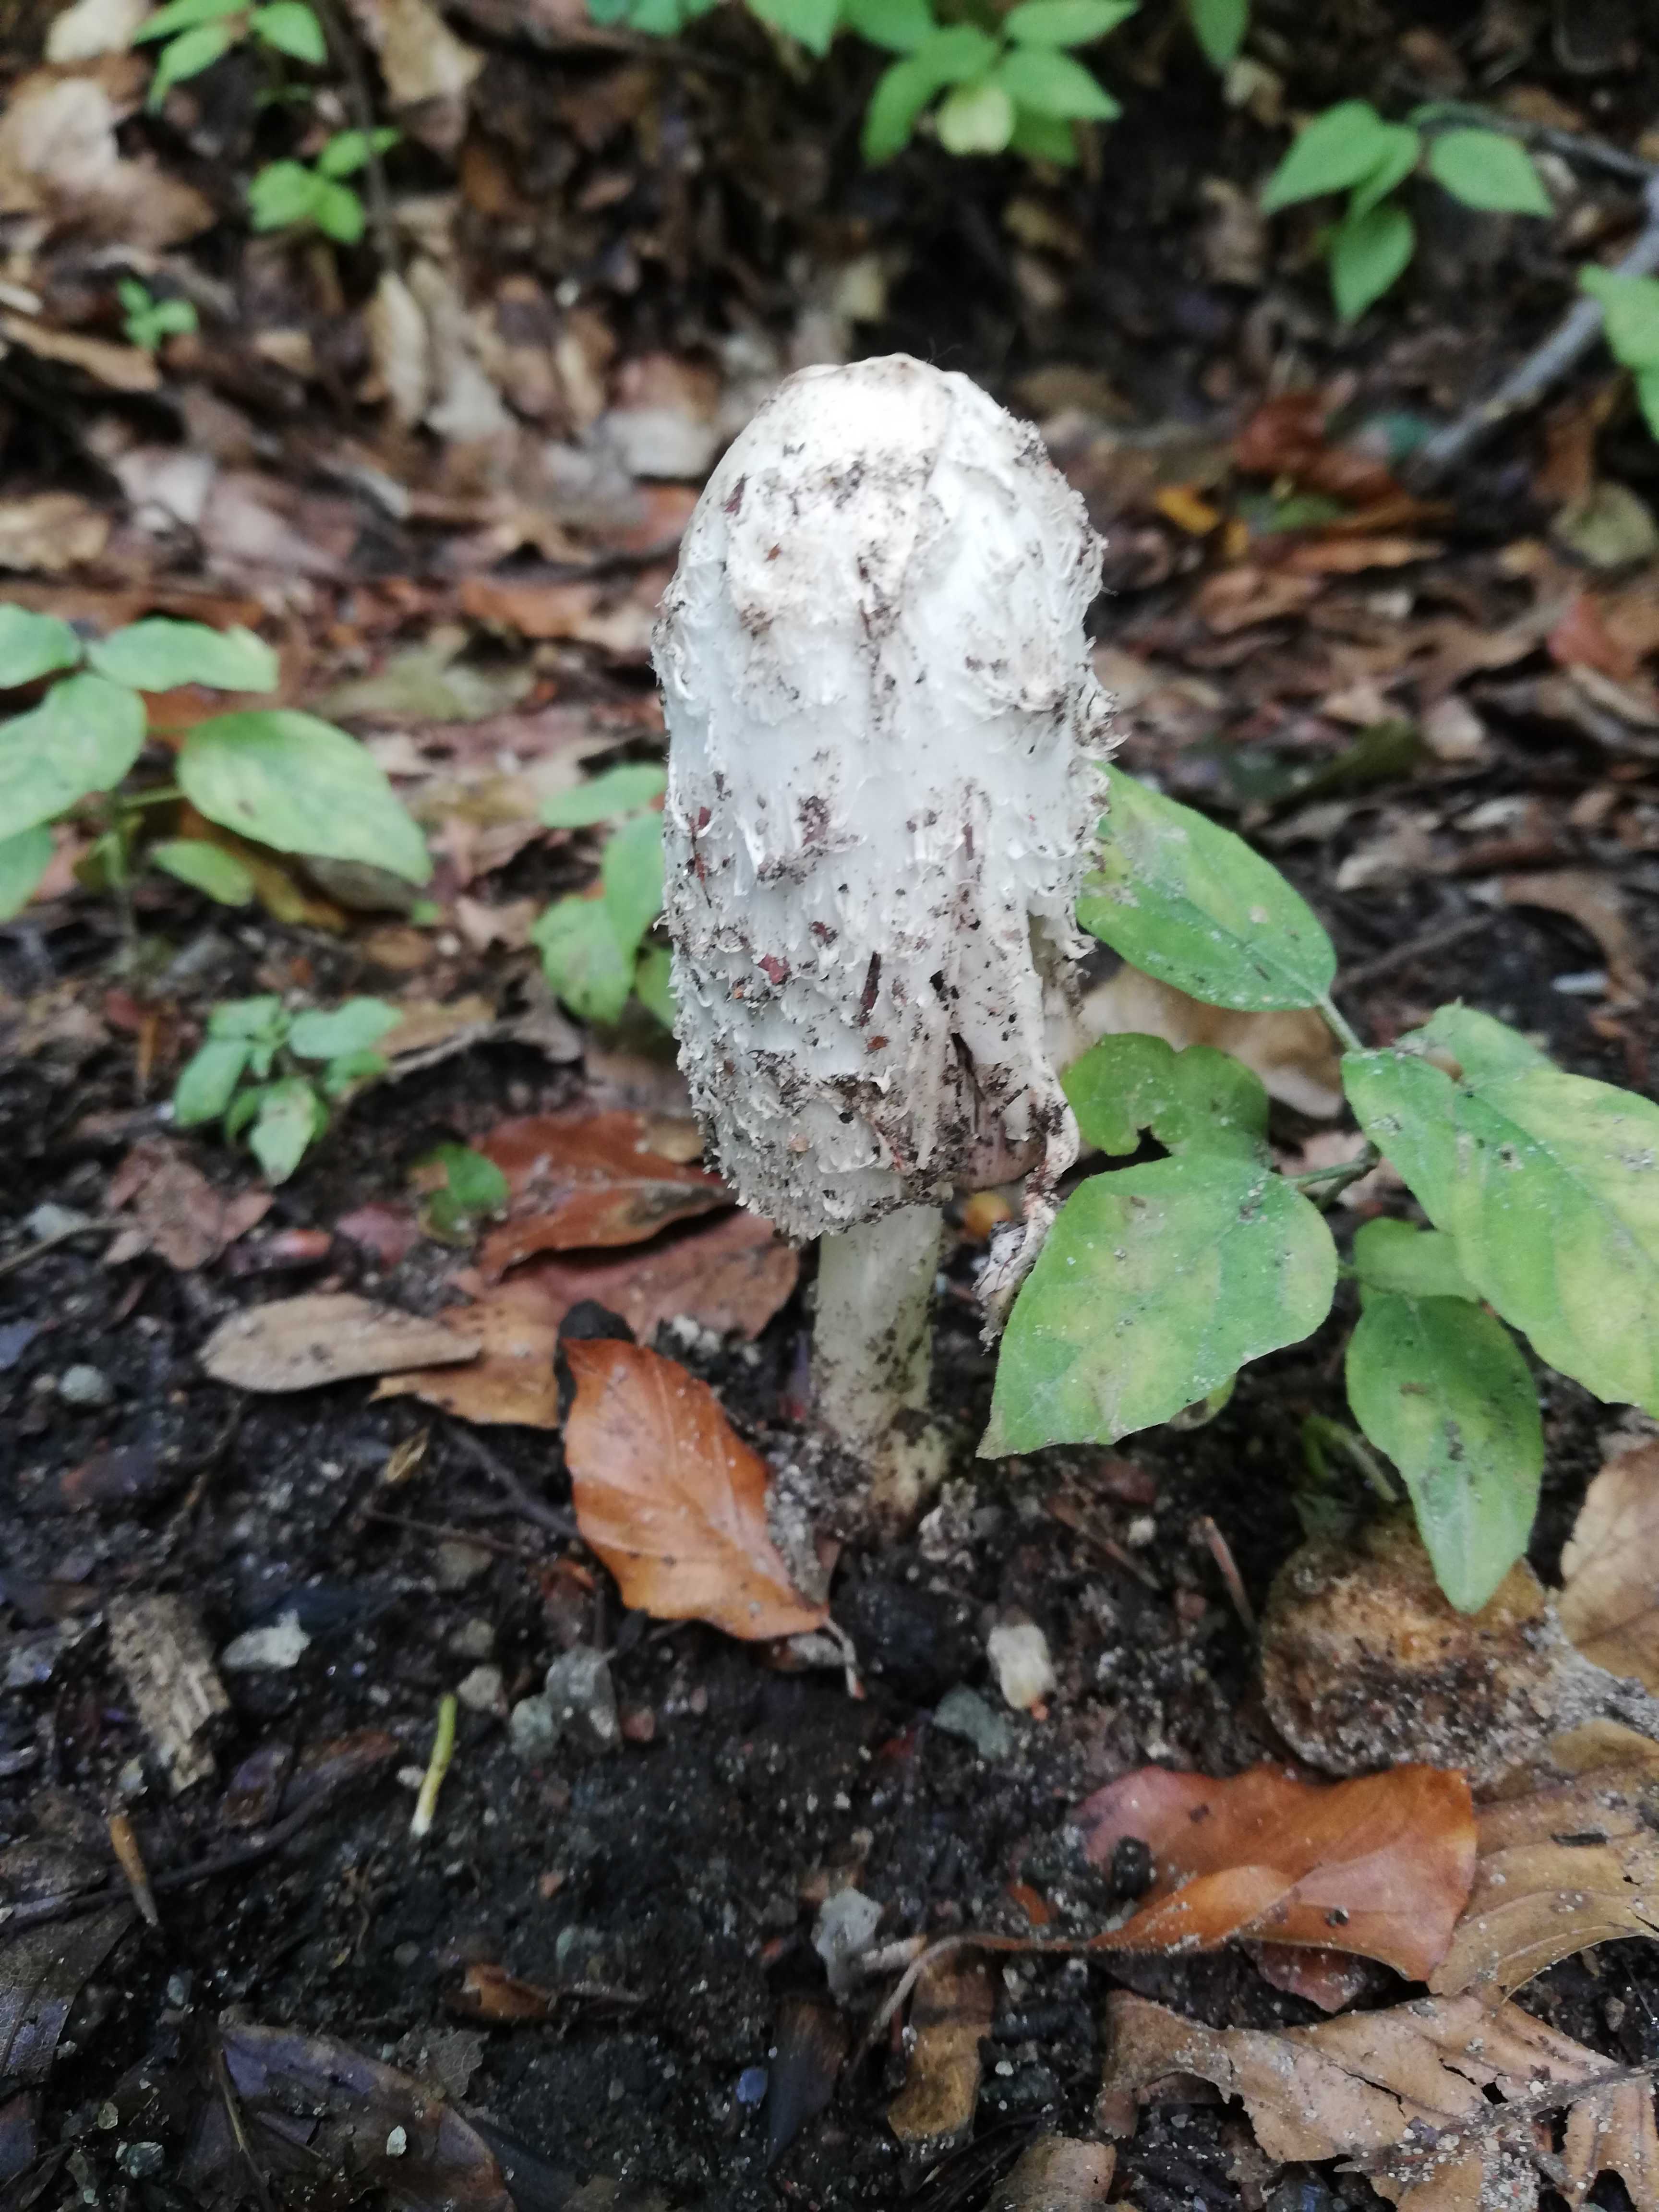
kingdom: Fungi
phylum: Basidiomycota
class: Agaricomycetes
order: Agaricales
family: Agaricaceae
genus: Coprinus
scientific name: Coprinus comatus
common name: stor parykhat
